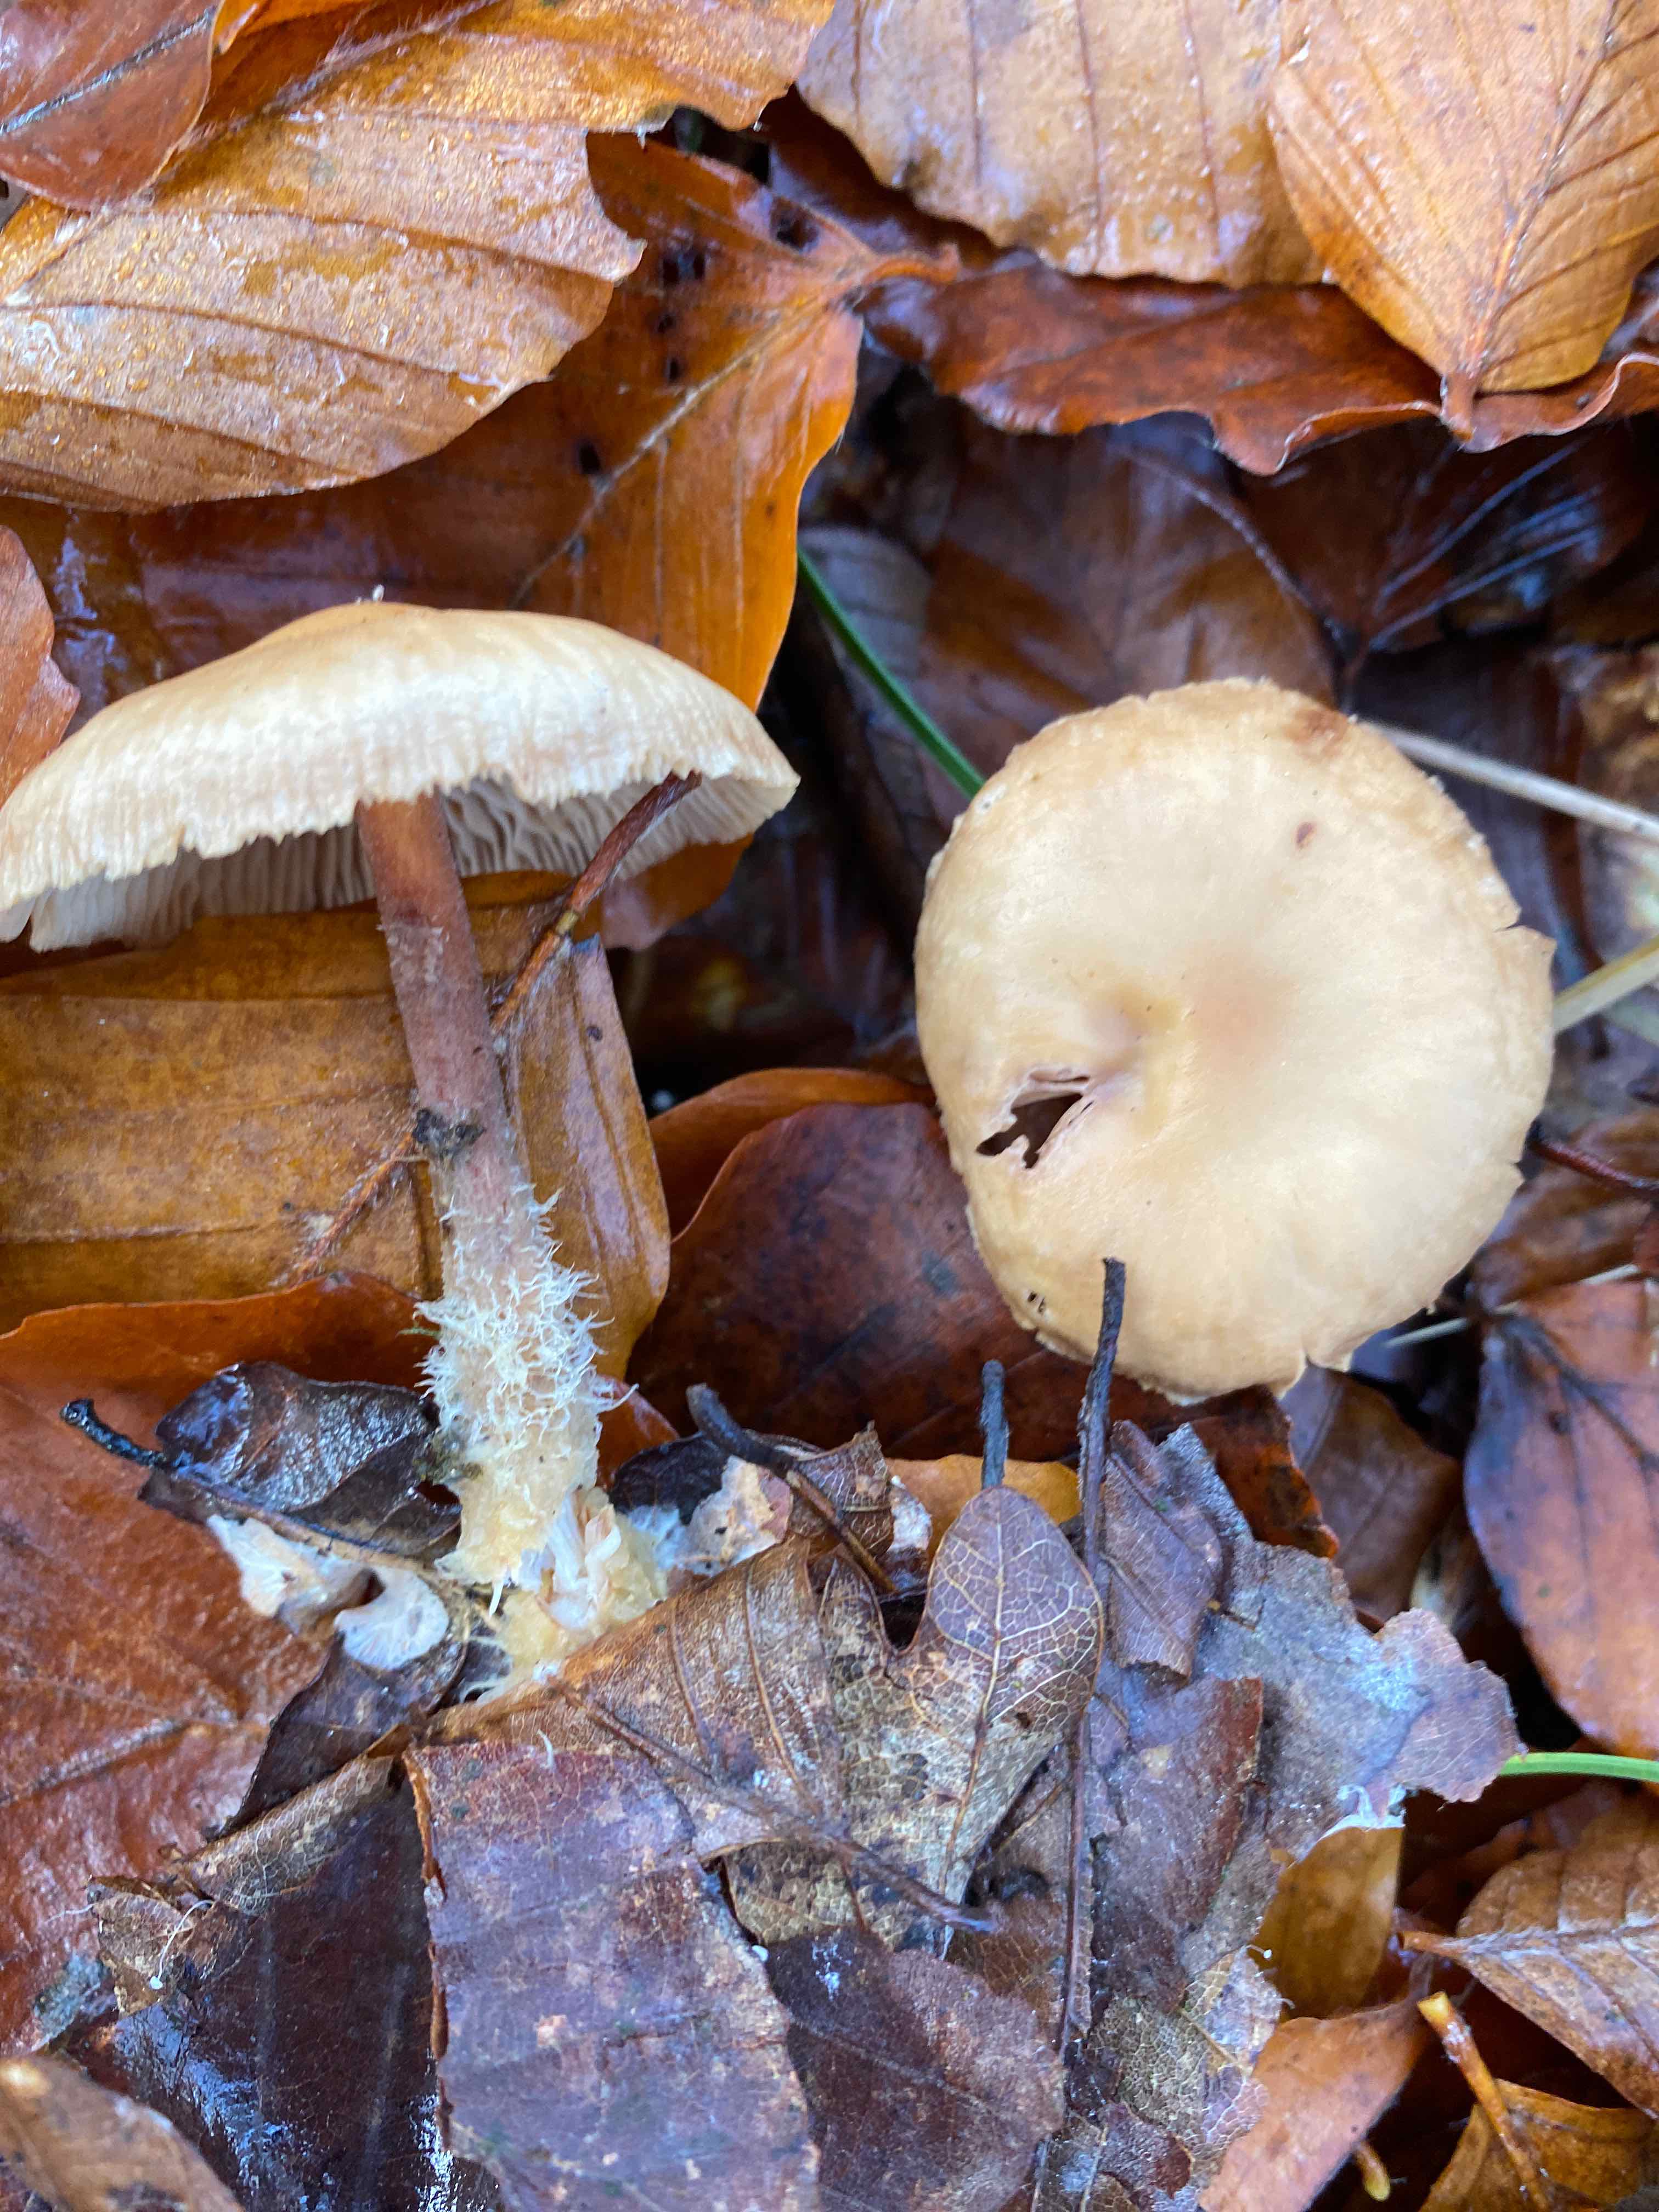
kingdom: Fungi
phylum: Basidiomycota
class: Agaricomycetes
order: Agaricales
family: Omphalotaceae
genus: Collybiopsis
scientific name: Collybiopsis peronata
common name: bestøvlet fladhat
